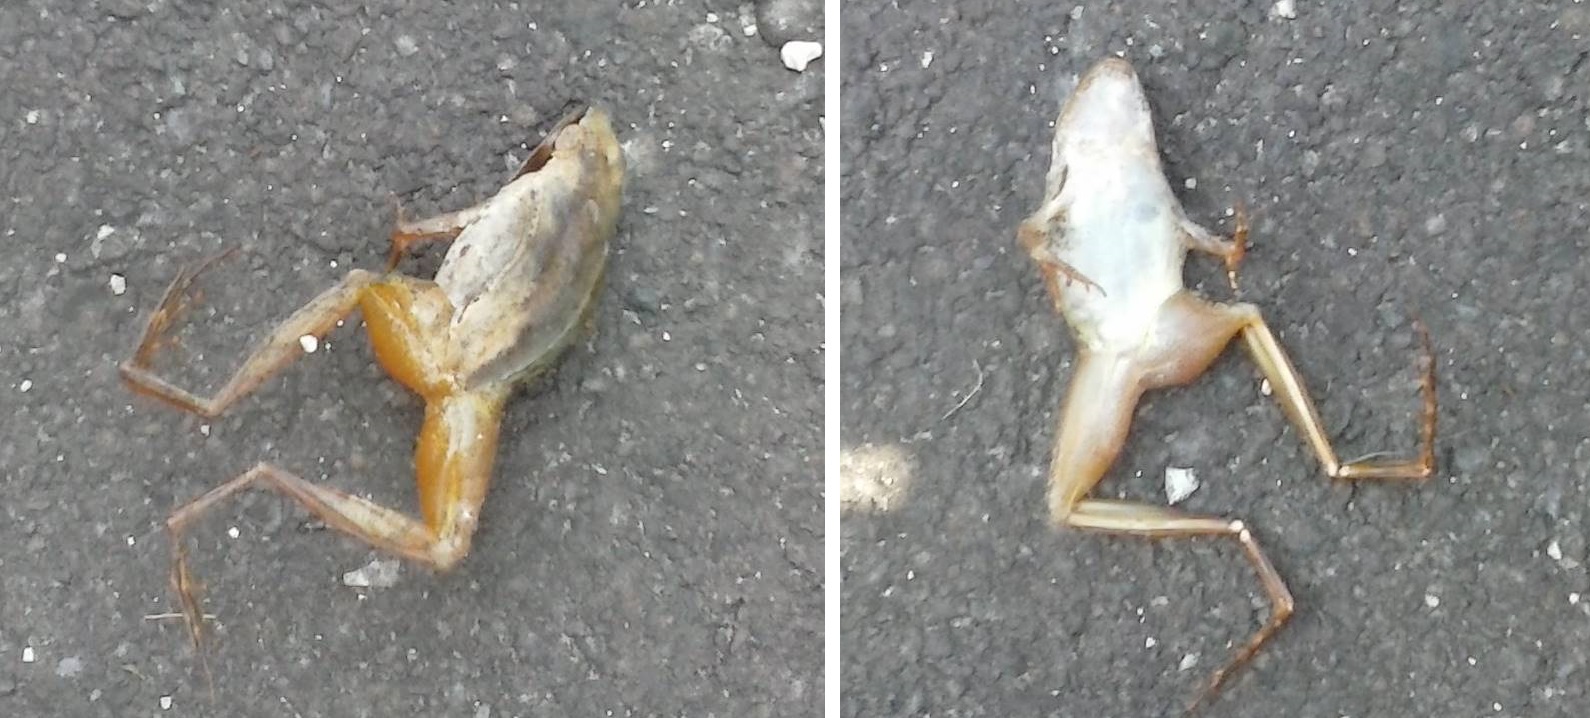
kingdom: Animalia
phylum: Chordata
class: Amphibia
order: Anura
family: Ranidae
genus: Rana
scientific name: Rana dalmatina
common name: Agile frog
